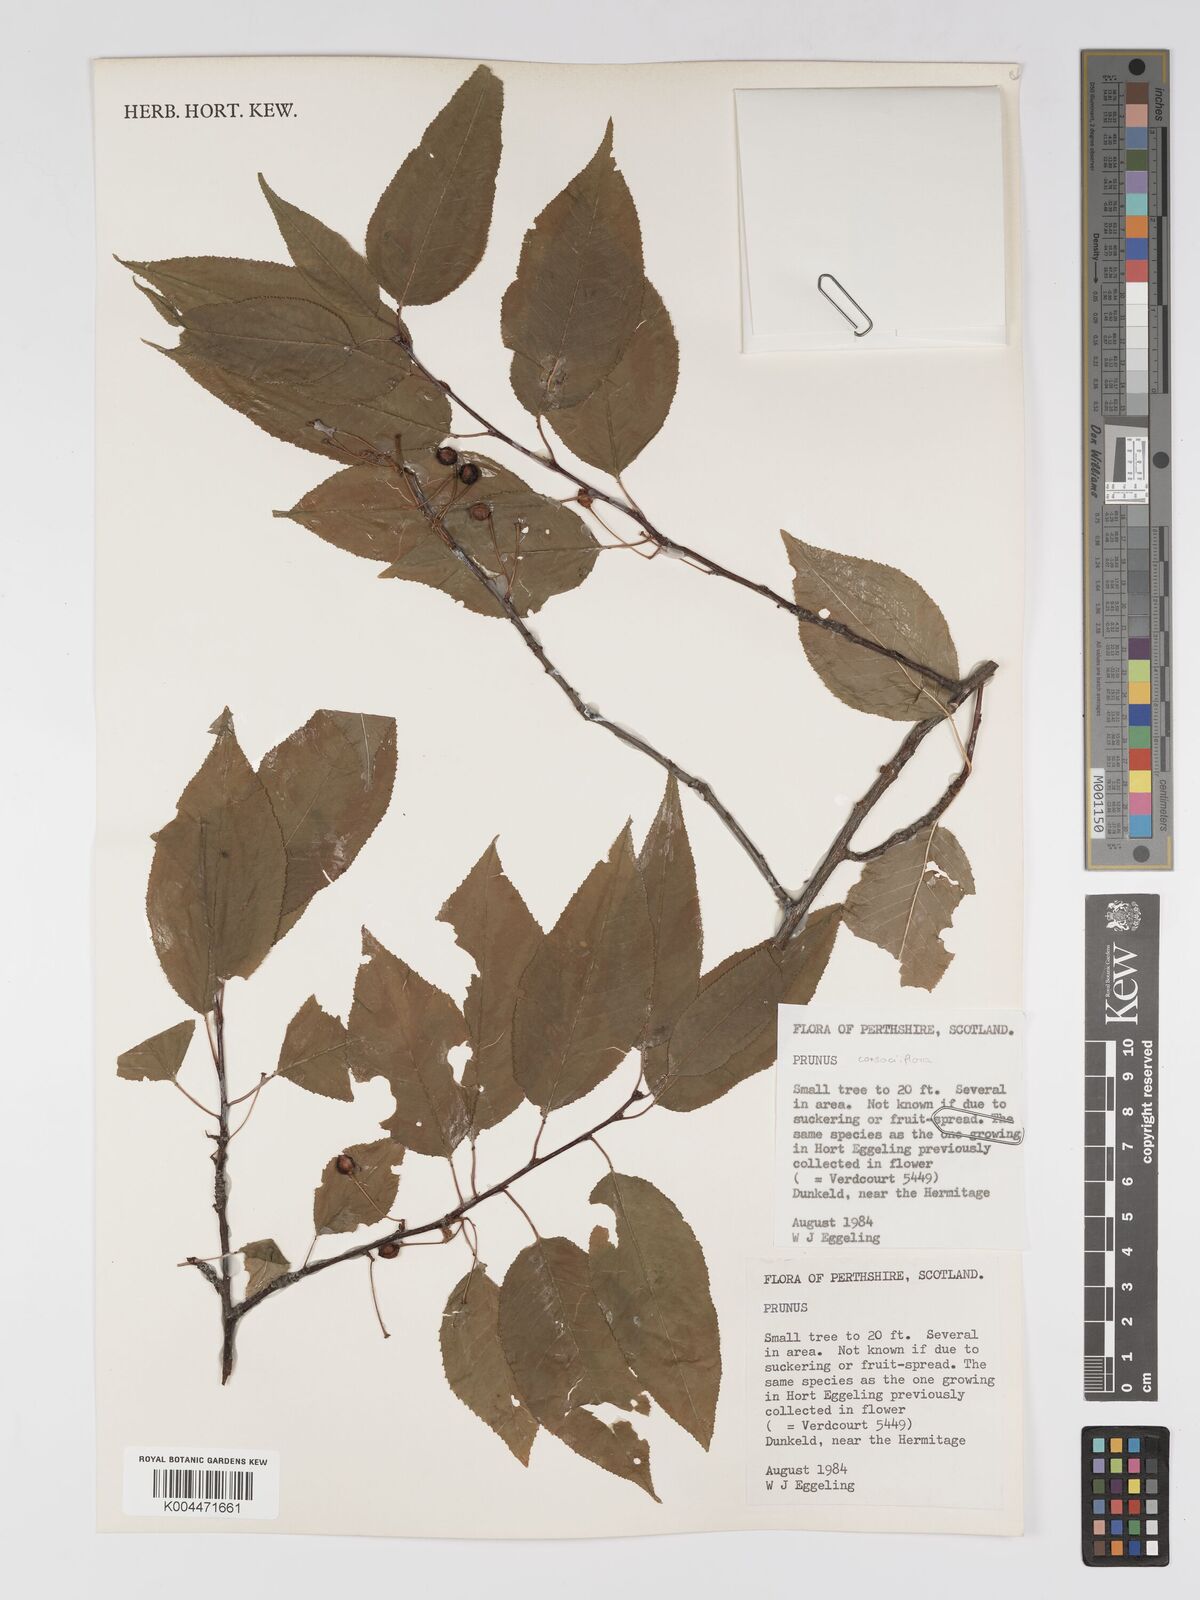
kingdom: Plantae
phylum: Tracheophyta
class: Magnoliopsida
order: Rosales
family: Rosaceae
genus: Prunus
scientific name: Prunus japonica
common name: Chinese bush cherry
